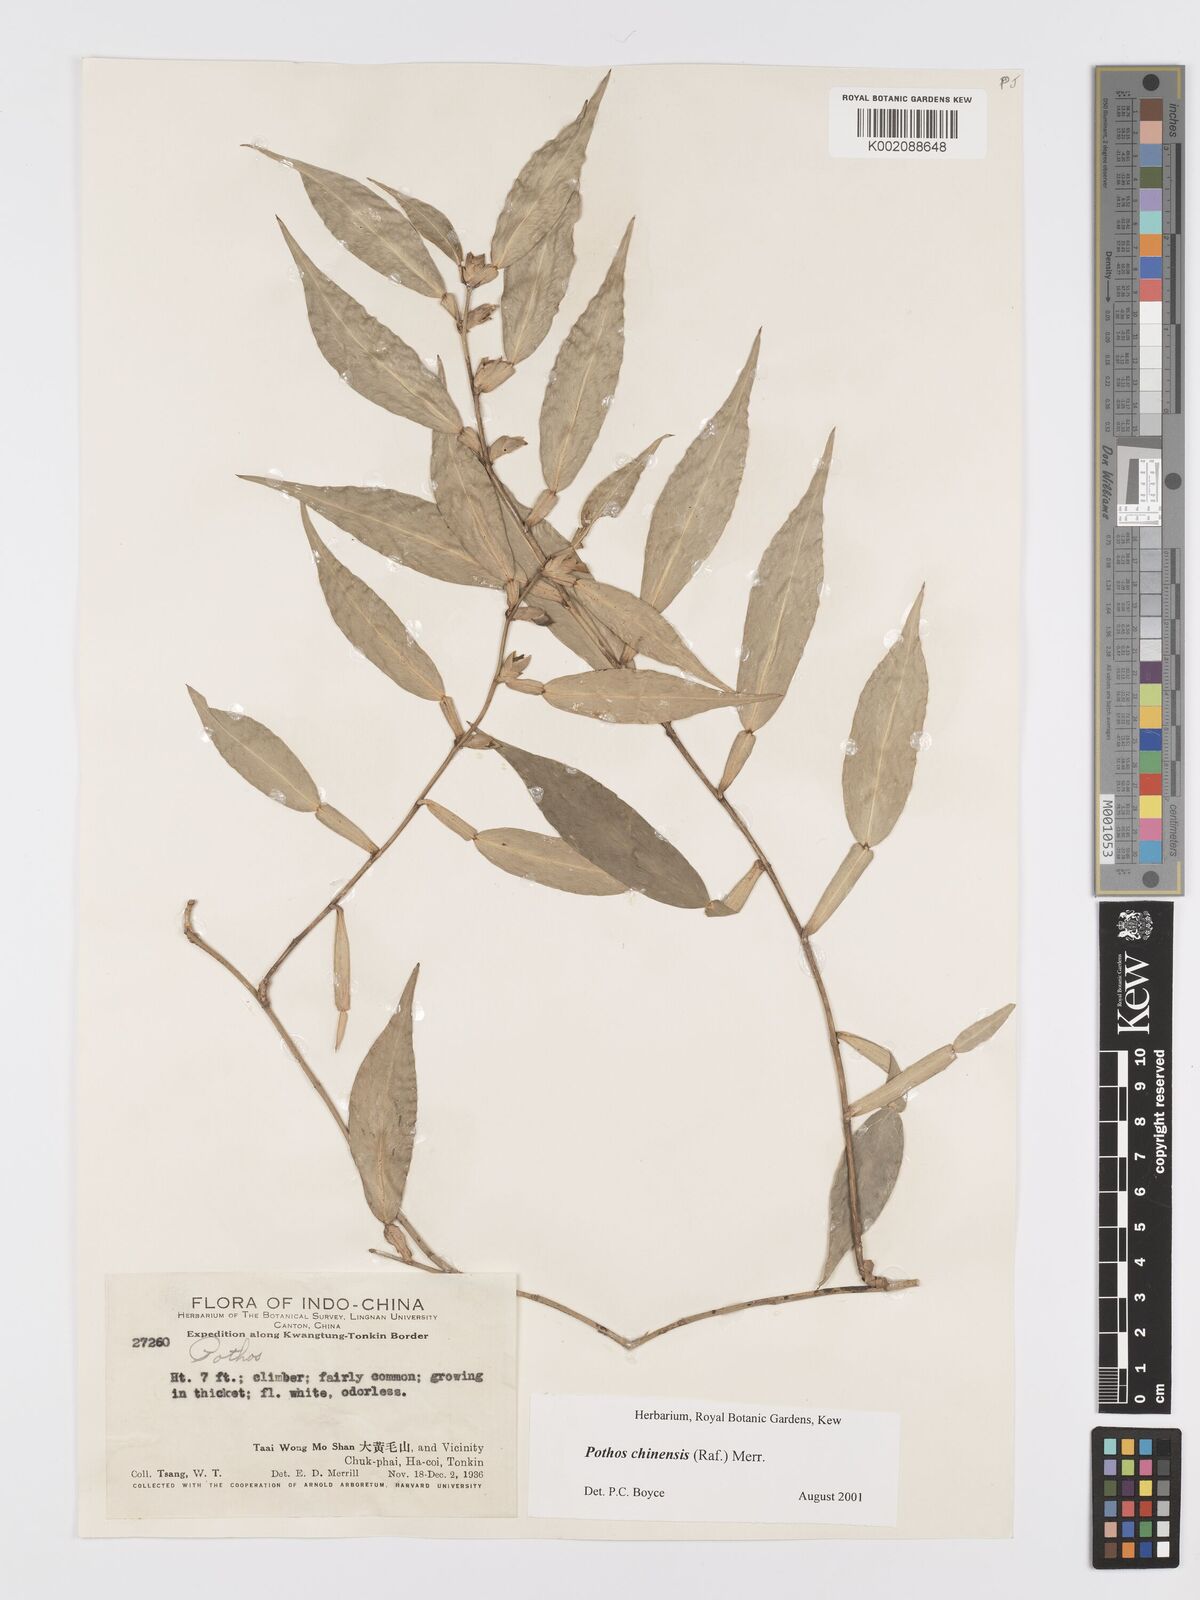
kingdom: Plantae
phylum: Tracheophyta
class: Liliopsida
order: Alismatales
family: Araceae
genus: Pothos
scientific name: Pothos chinensis
